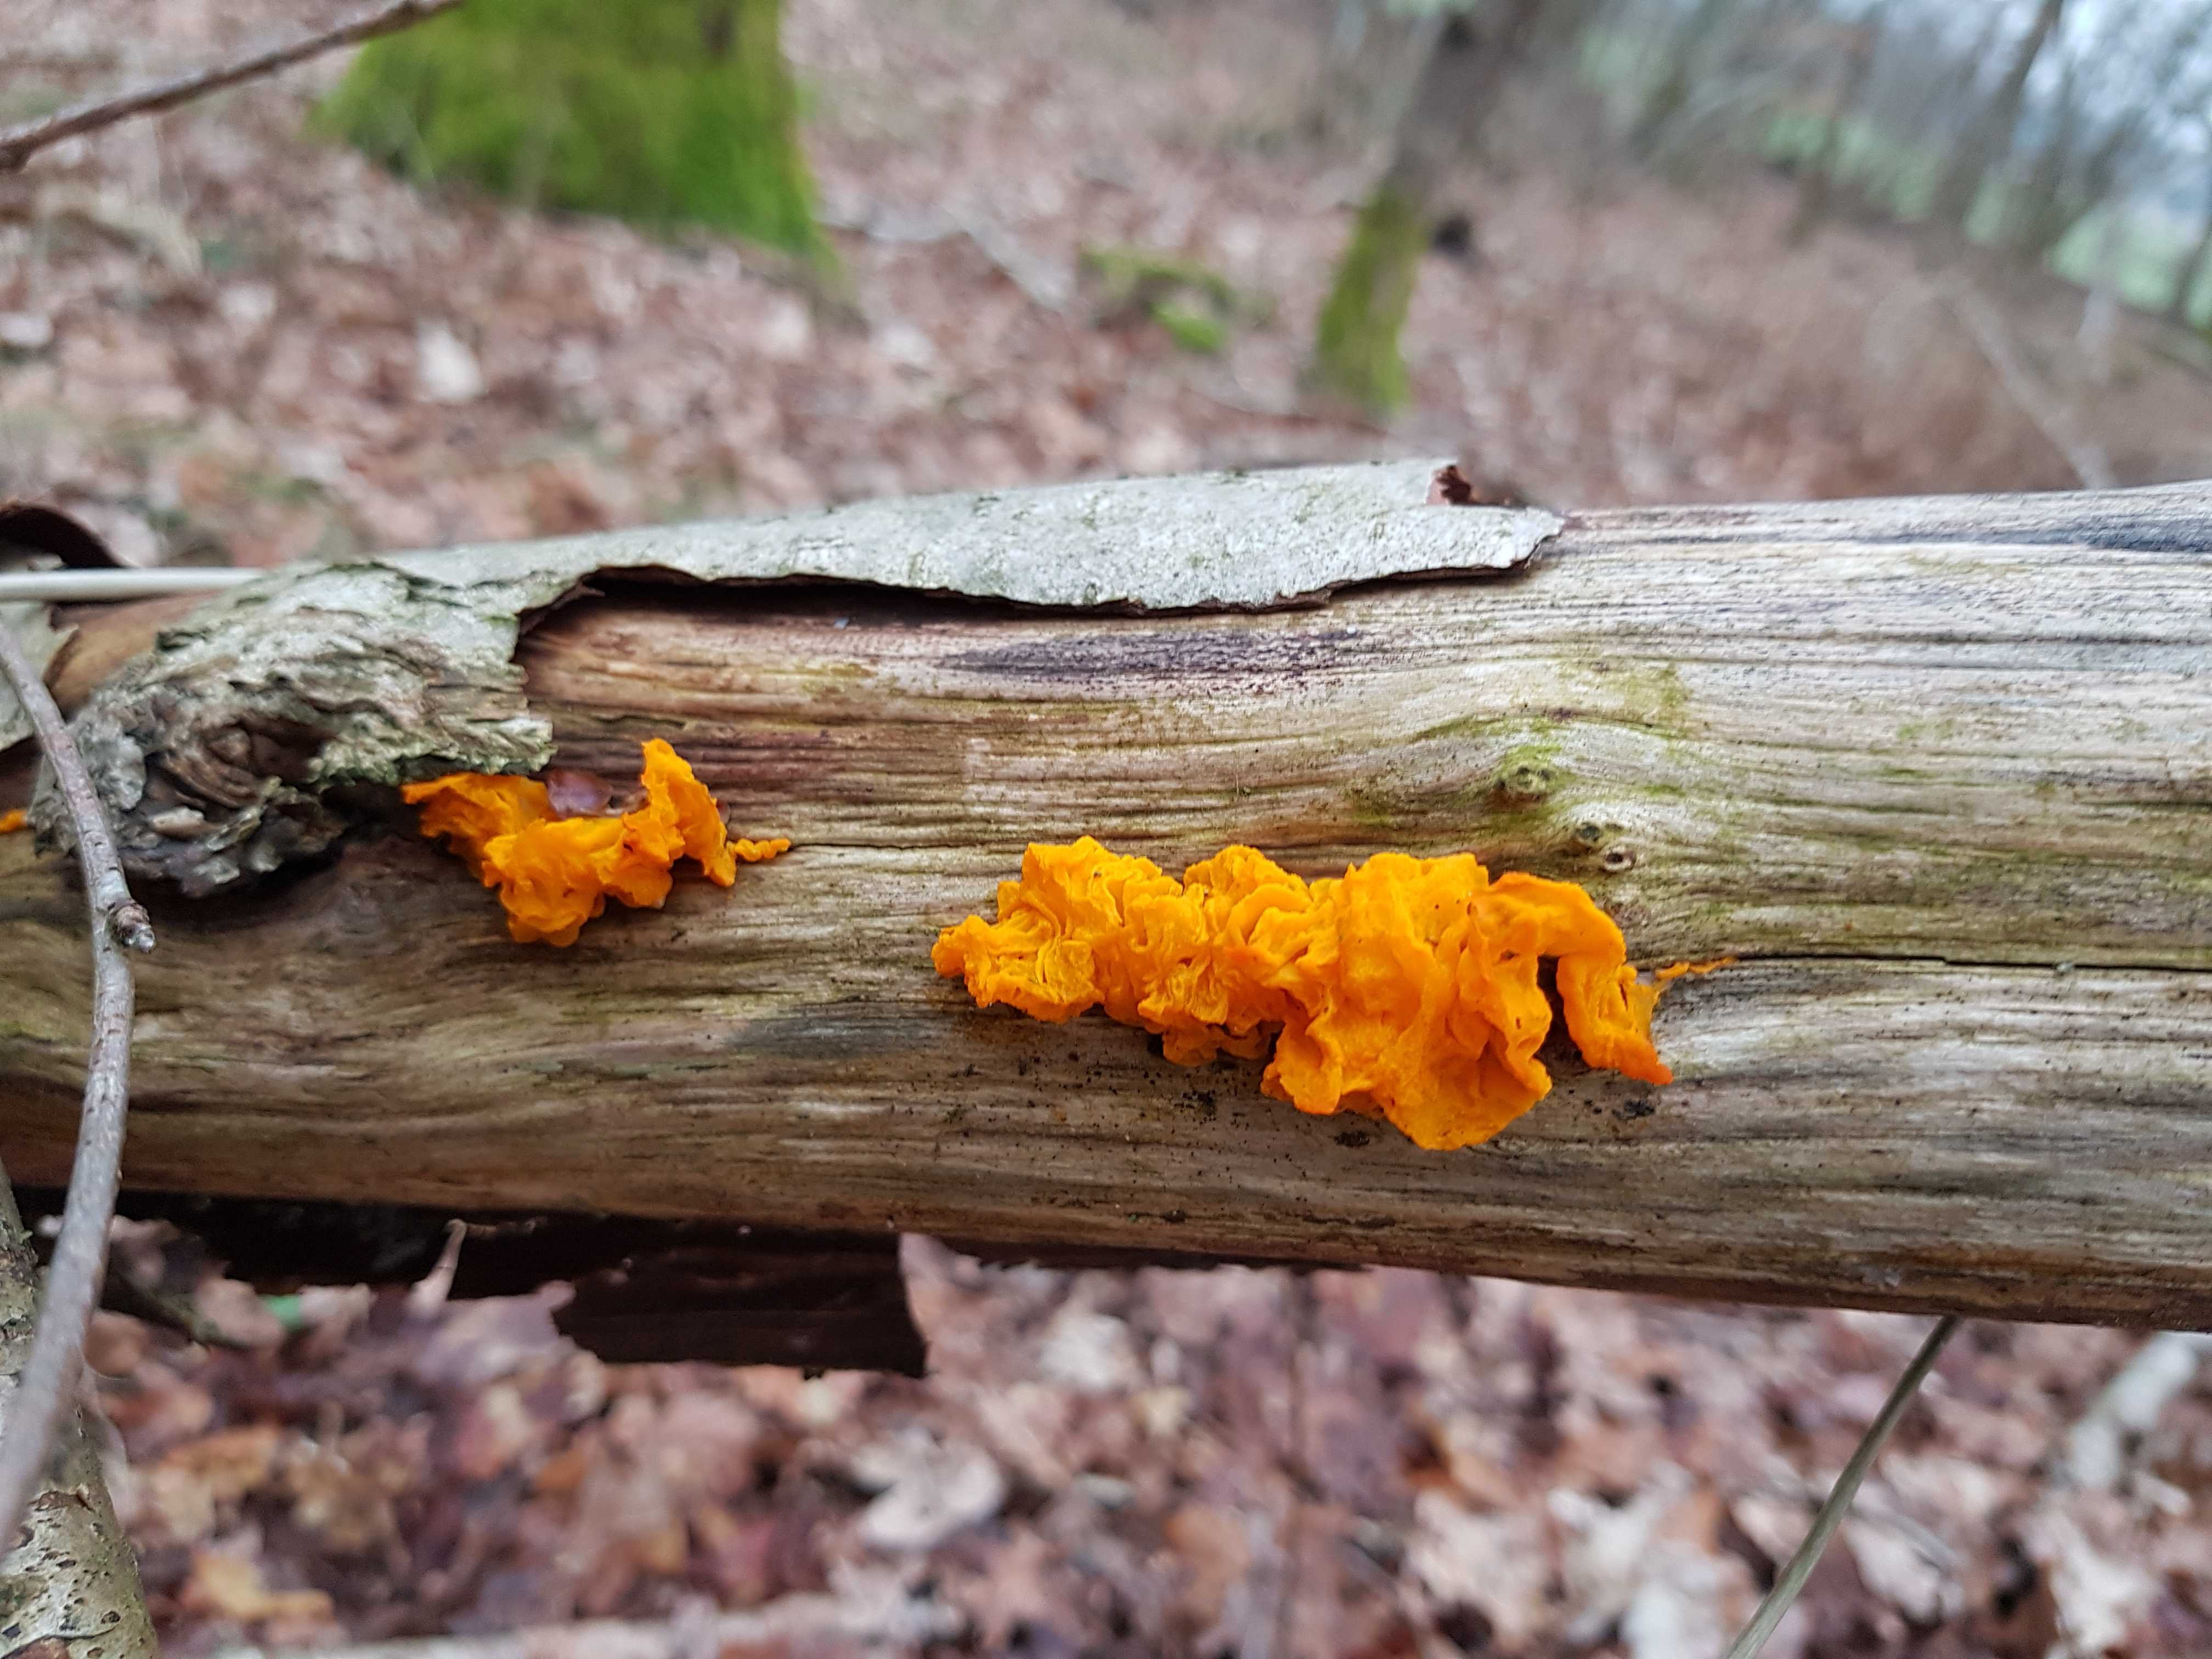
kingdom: Fungi
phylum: Basidiomycota
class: Tremellomycetes
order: Tremellales
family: Tremellaceae
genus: Tremella
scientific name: Tremella mesenterica
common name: gul bævresvamp
